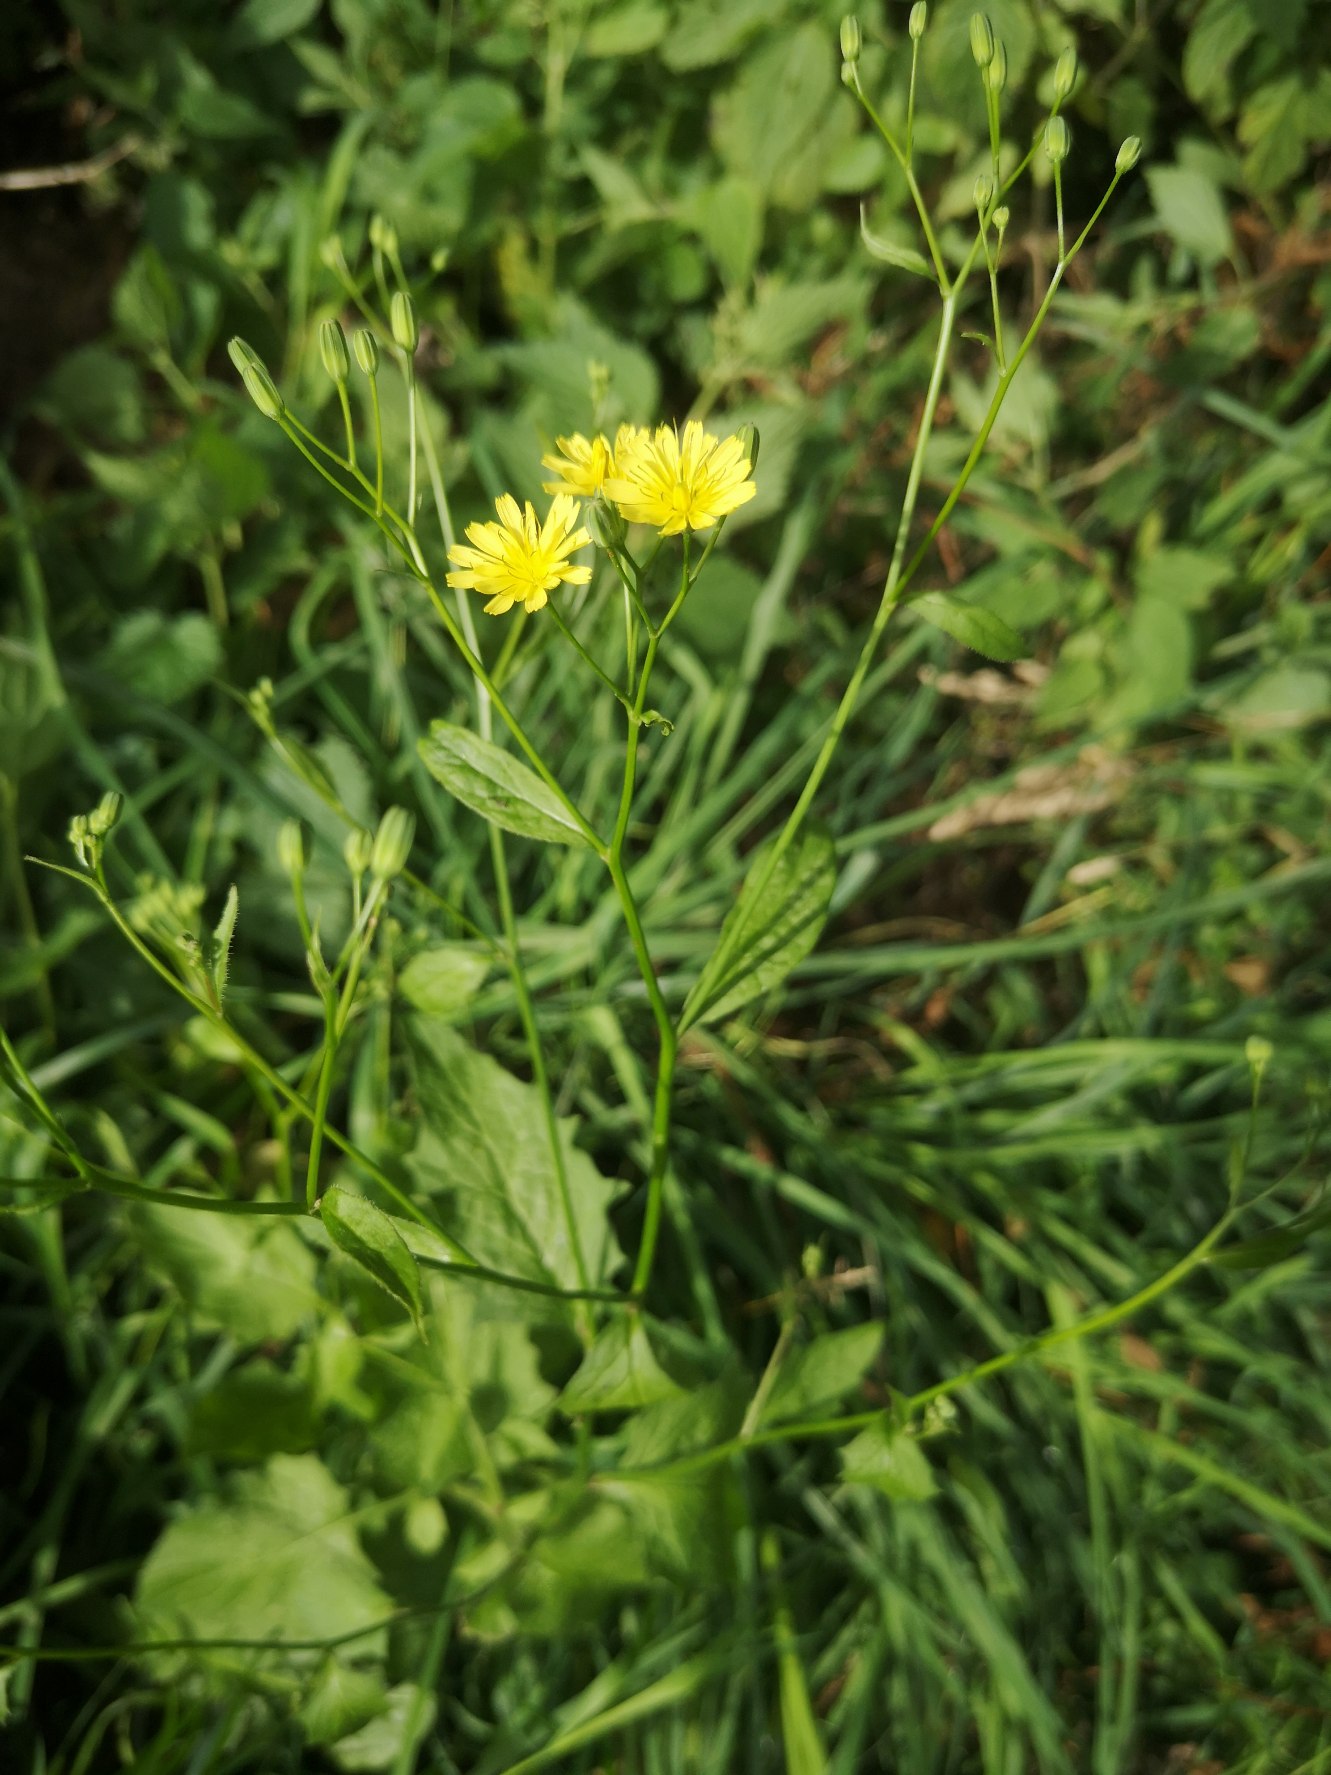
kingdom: Plantae
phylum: Tracheophyta
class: Magnoliopsida
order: Asterales
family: Asteraceae
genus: Lapsana
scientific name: Lapsana communis
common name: Haremad
